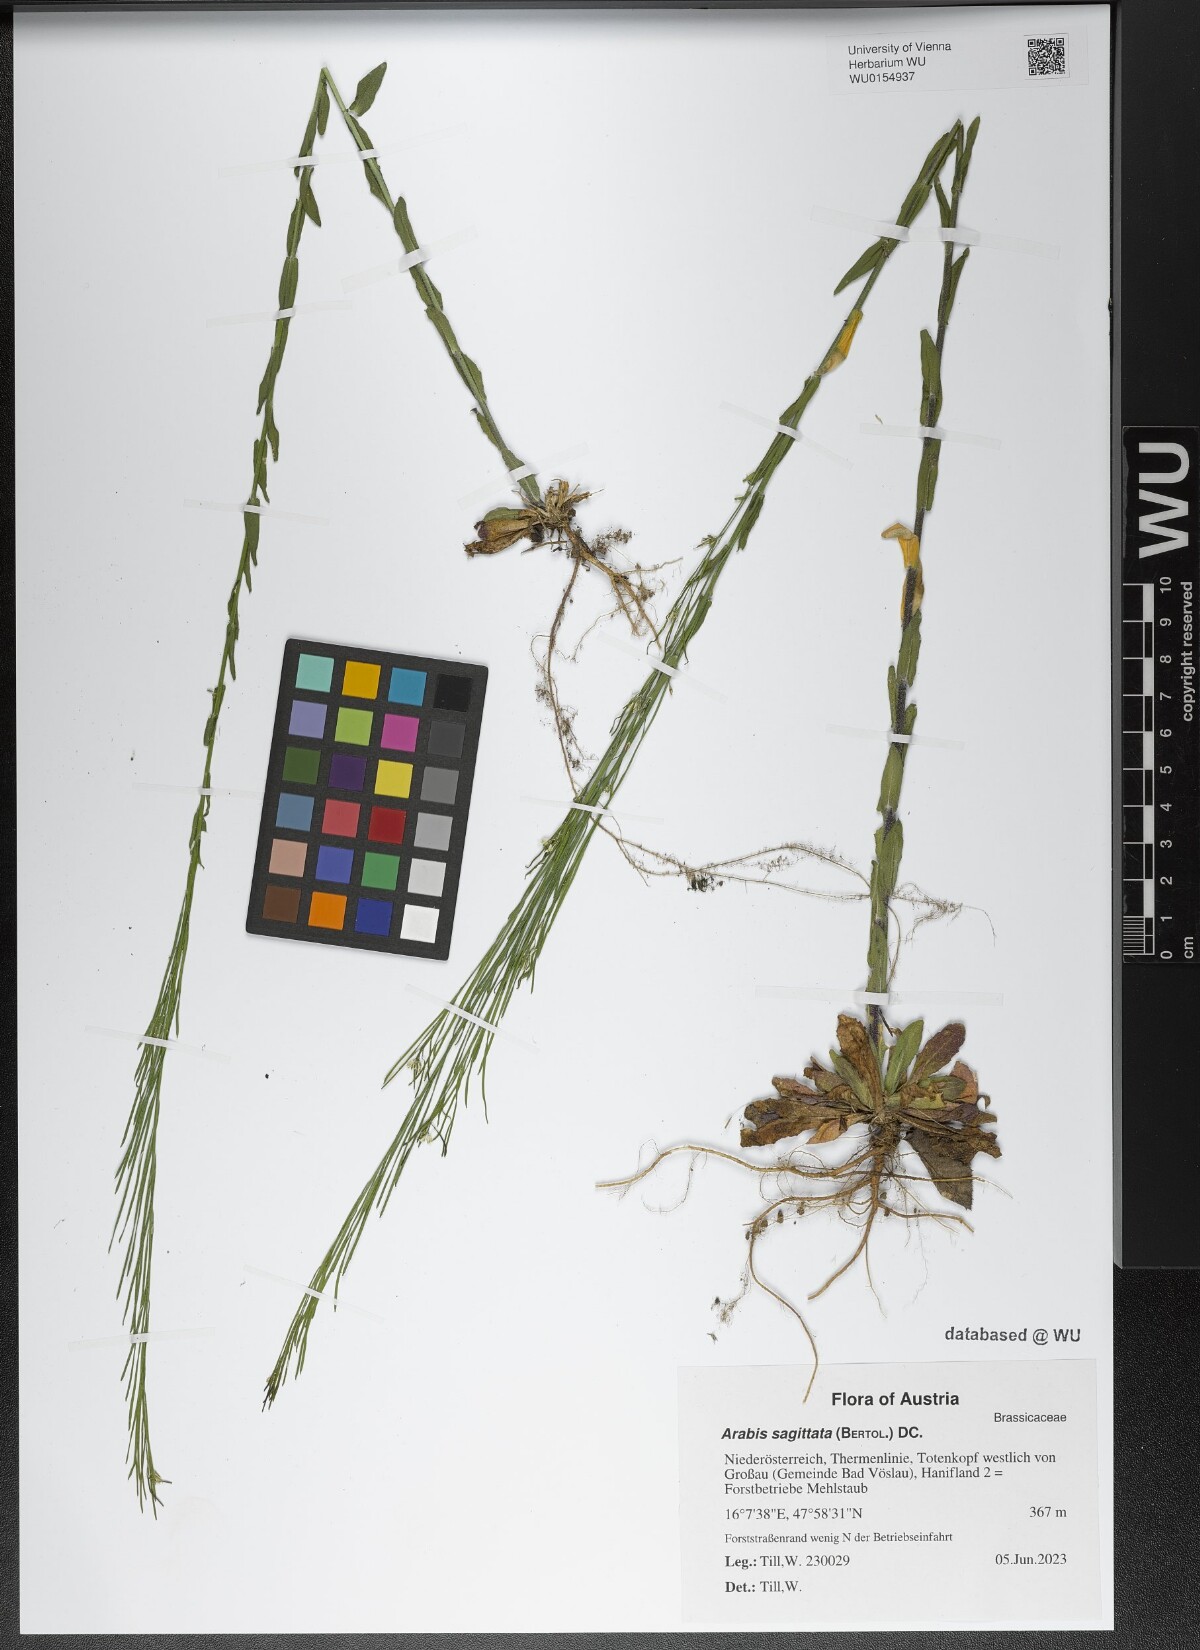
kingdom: Plantae
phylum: Tracheophyta
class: Magnoliopsida
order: Brassicales
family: Brassicaceae
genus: Arabis
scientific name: Arabis sagittata
